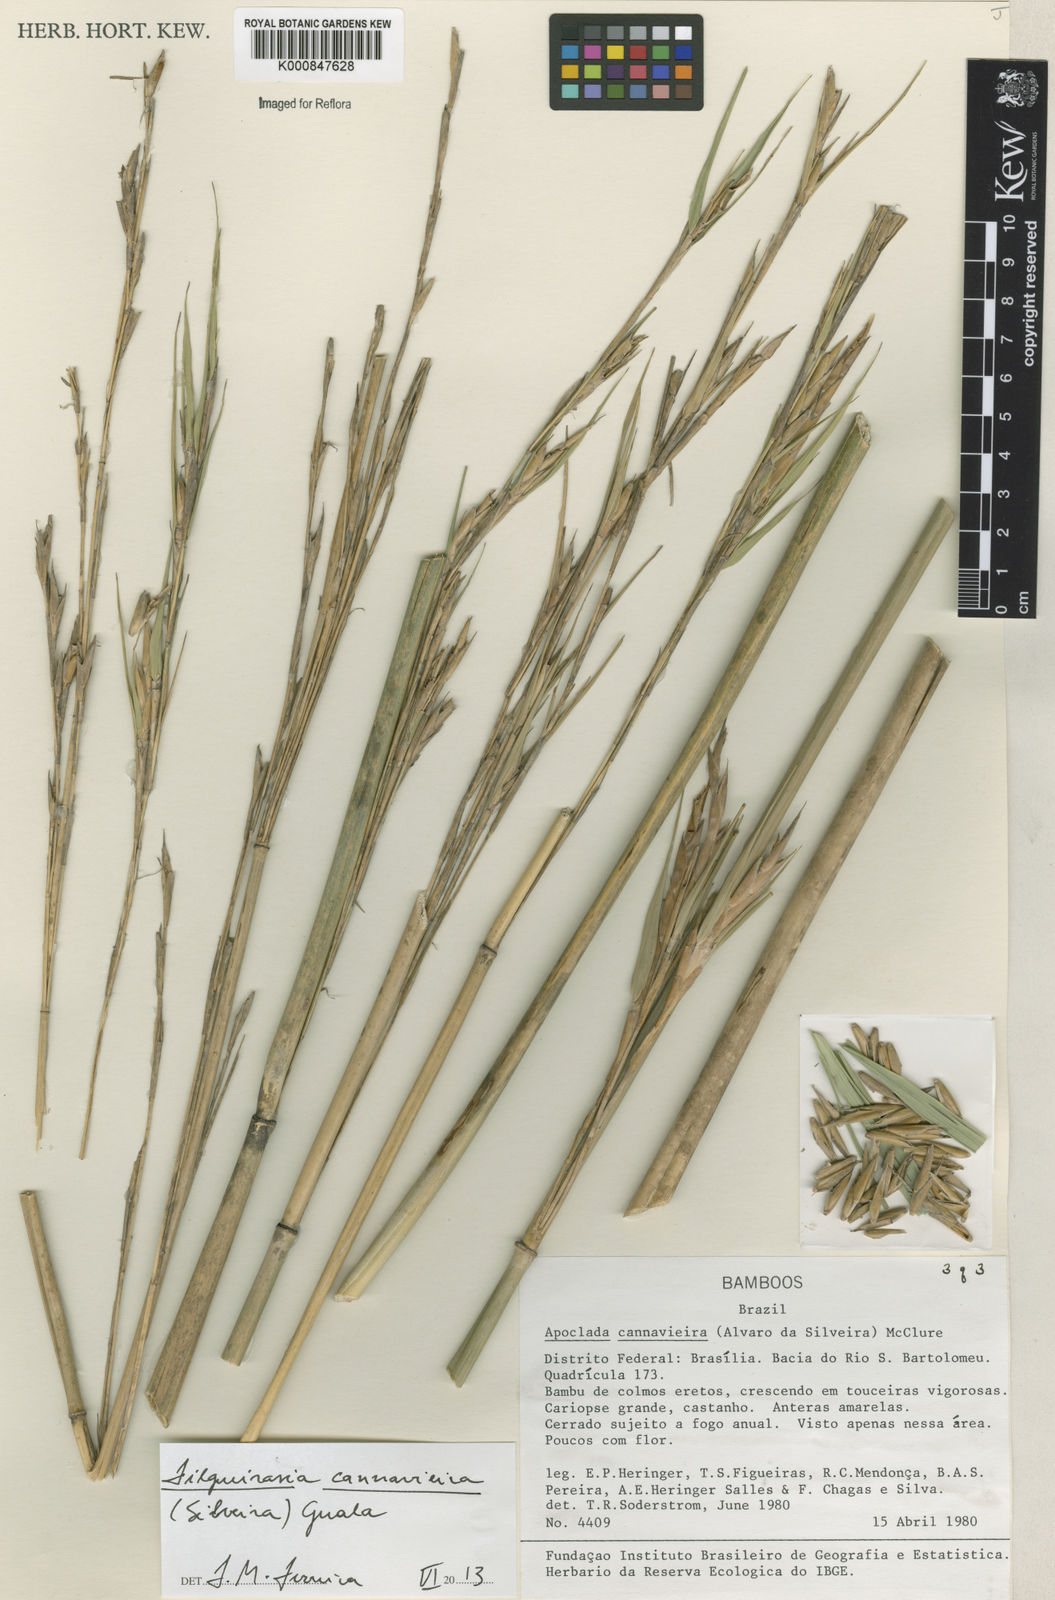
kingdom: Plantae
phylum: Tracheophyta
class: Liliopsida
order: Poales
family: Poaceae
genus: Filgueirasia
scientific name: Filgueirasia cannavieira
